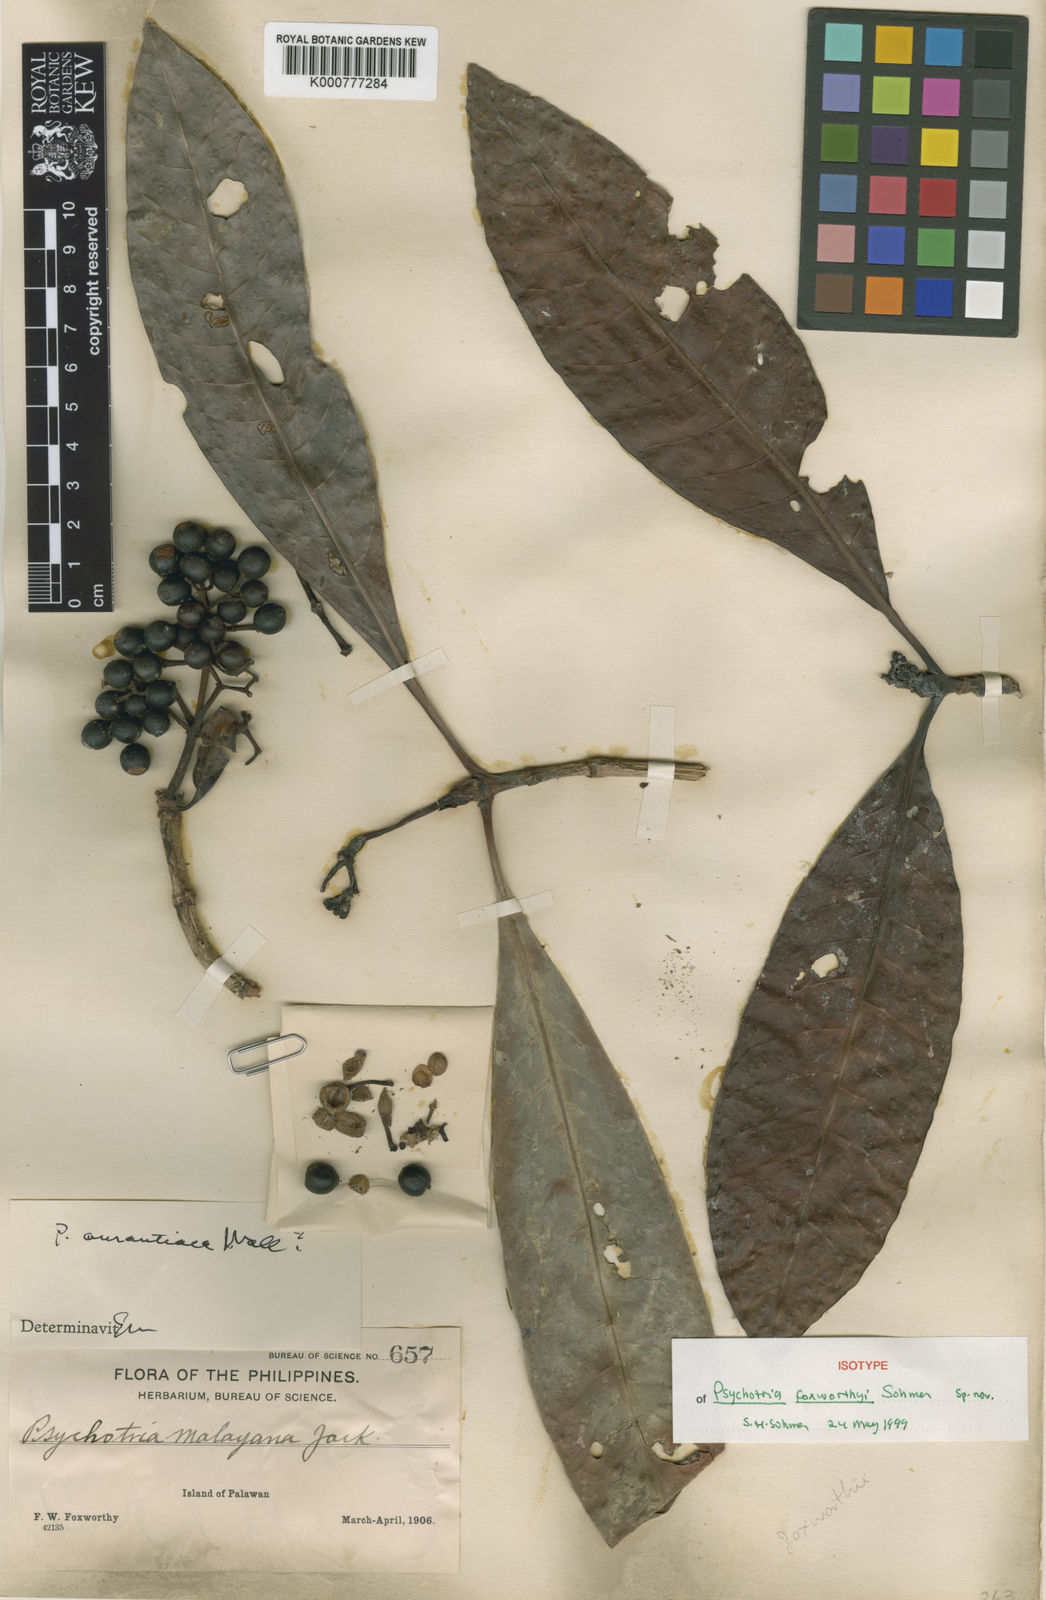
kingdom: Plantae
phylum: Tracheophyta
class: Magnoliopsida
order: Gentianales
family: Rubiaceae
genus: Psychotria
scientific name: Psychotria foxworthyi
